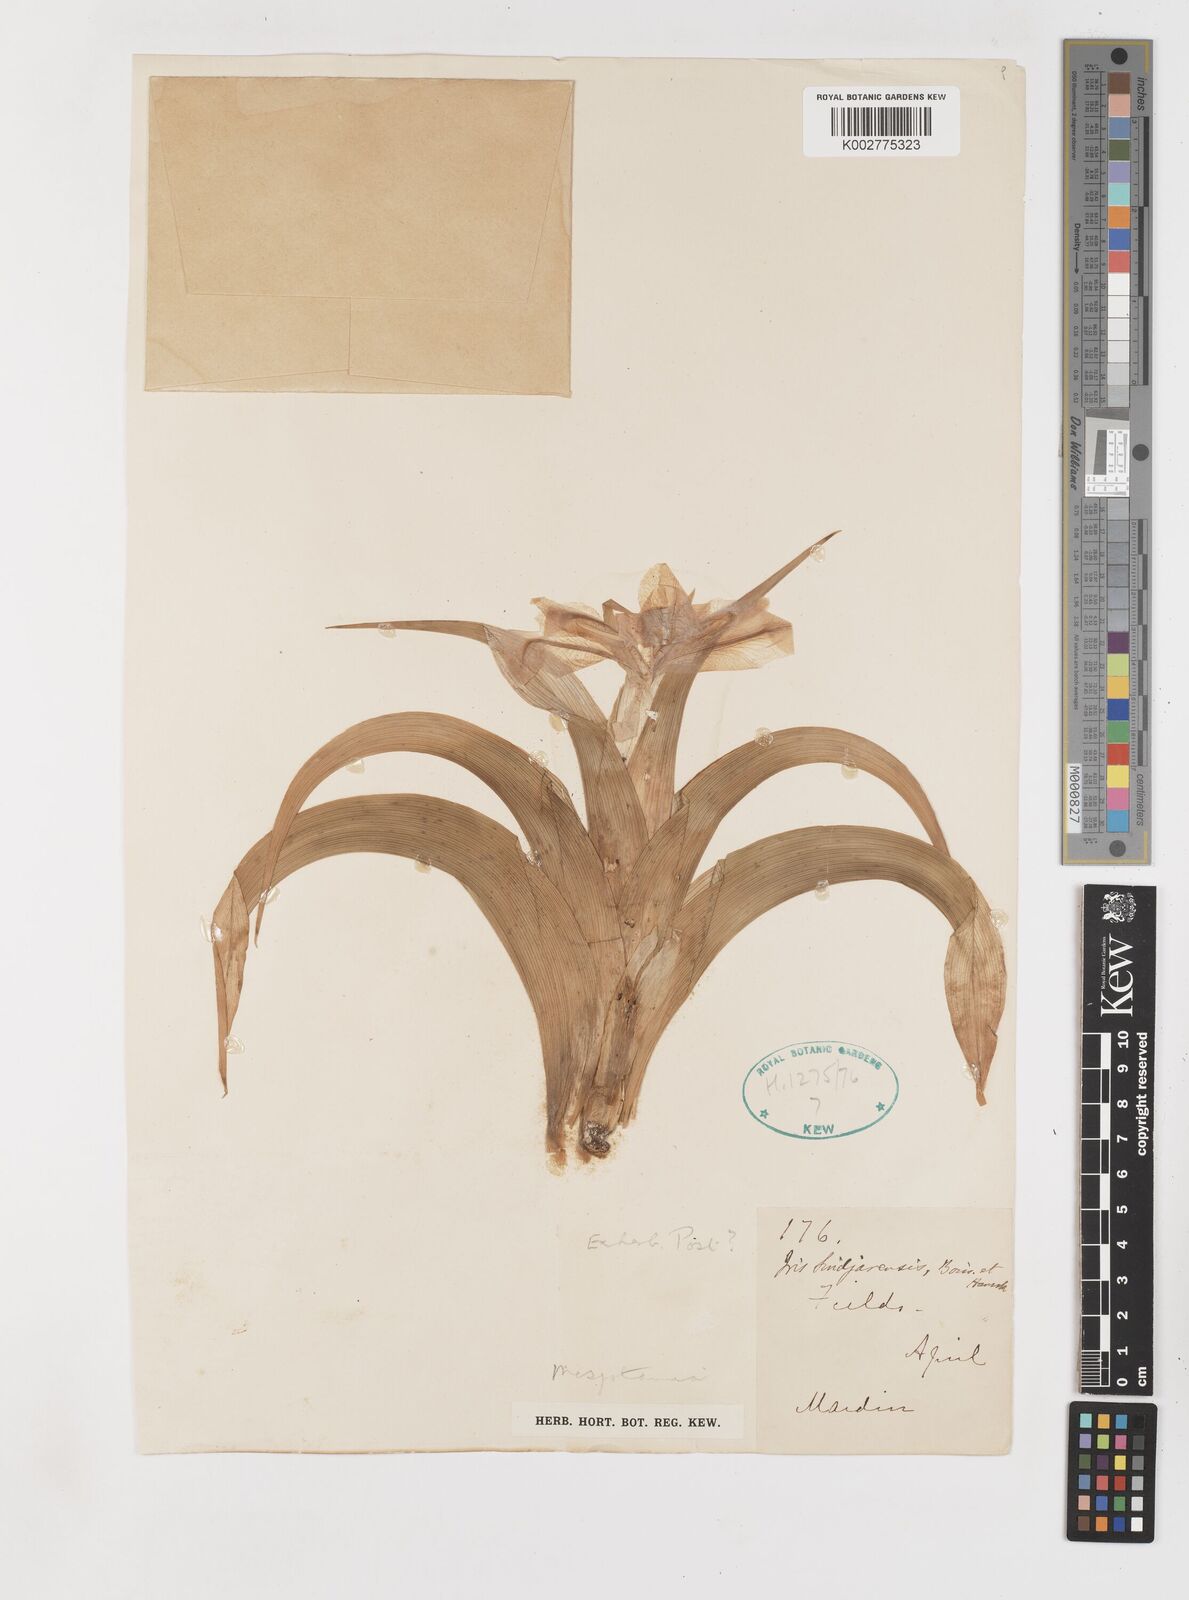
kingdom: Plantae
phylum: Tracheophyta
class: Liliopsida
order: Asparagales
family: Iridaceae
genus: Iris
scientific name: Iris aucheri
